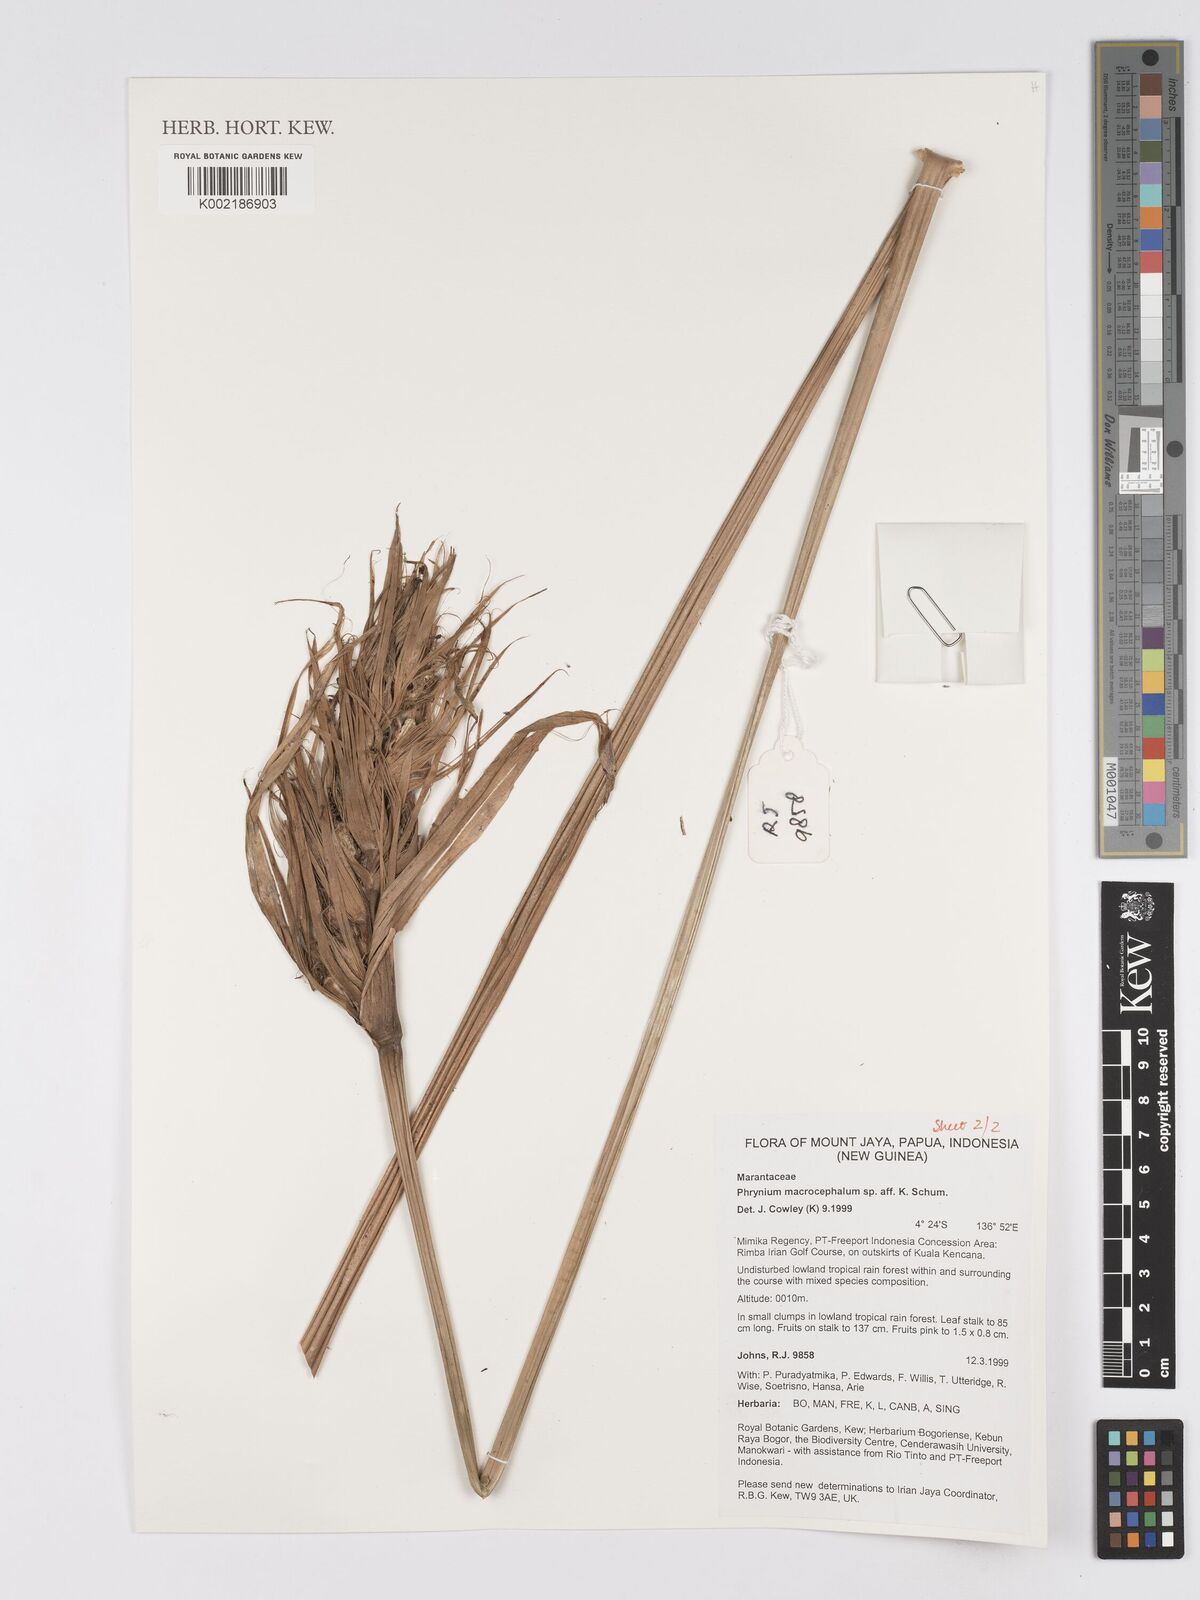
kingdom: Plantae
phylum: Tracheophyta
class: Liliopsida
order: Zingiberales
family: Marantaceae
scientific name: Marantaceae
